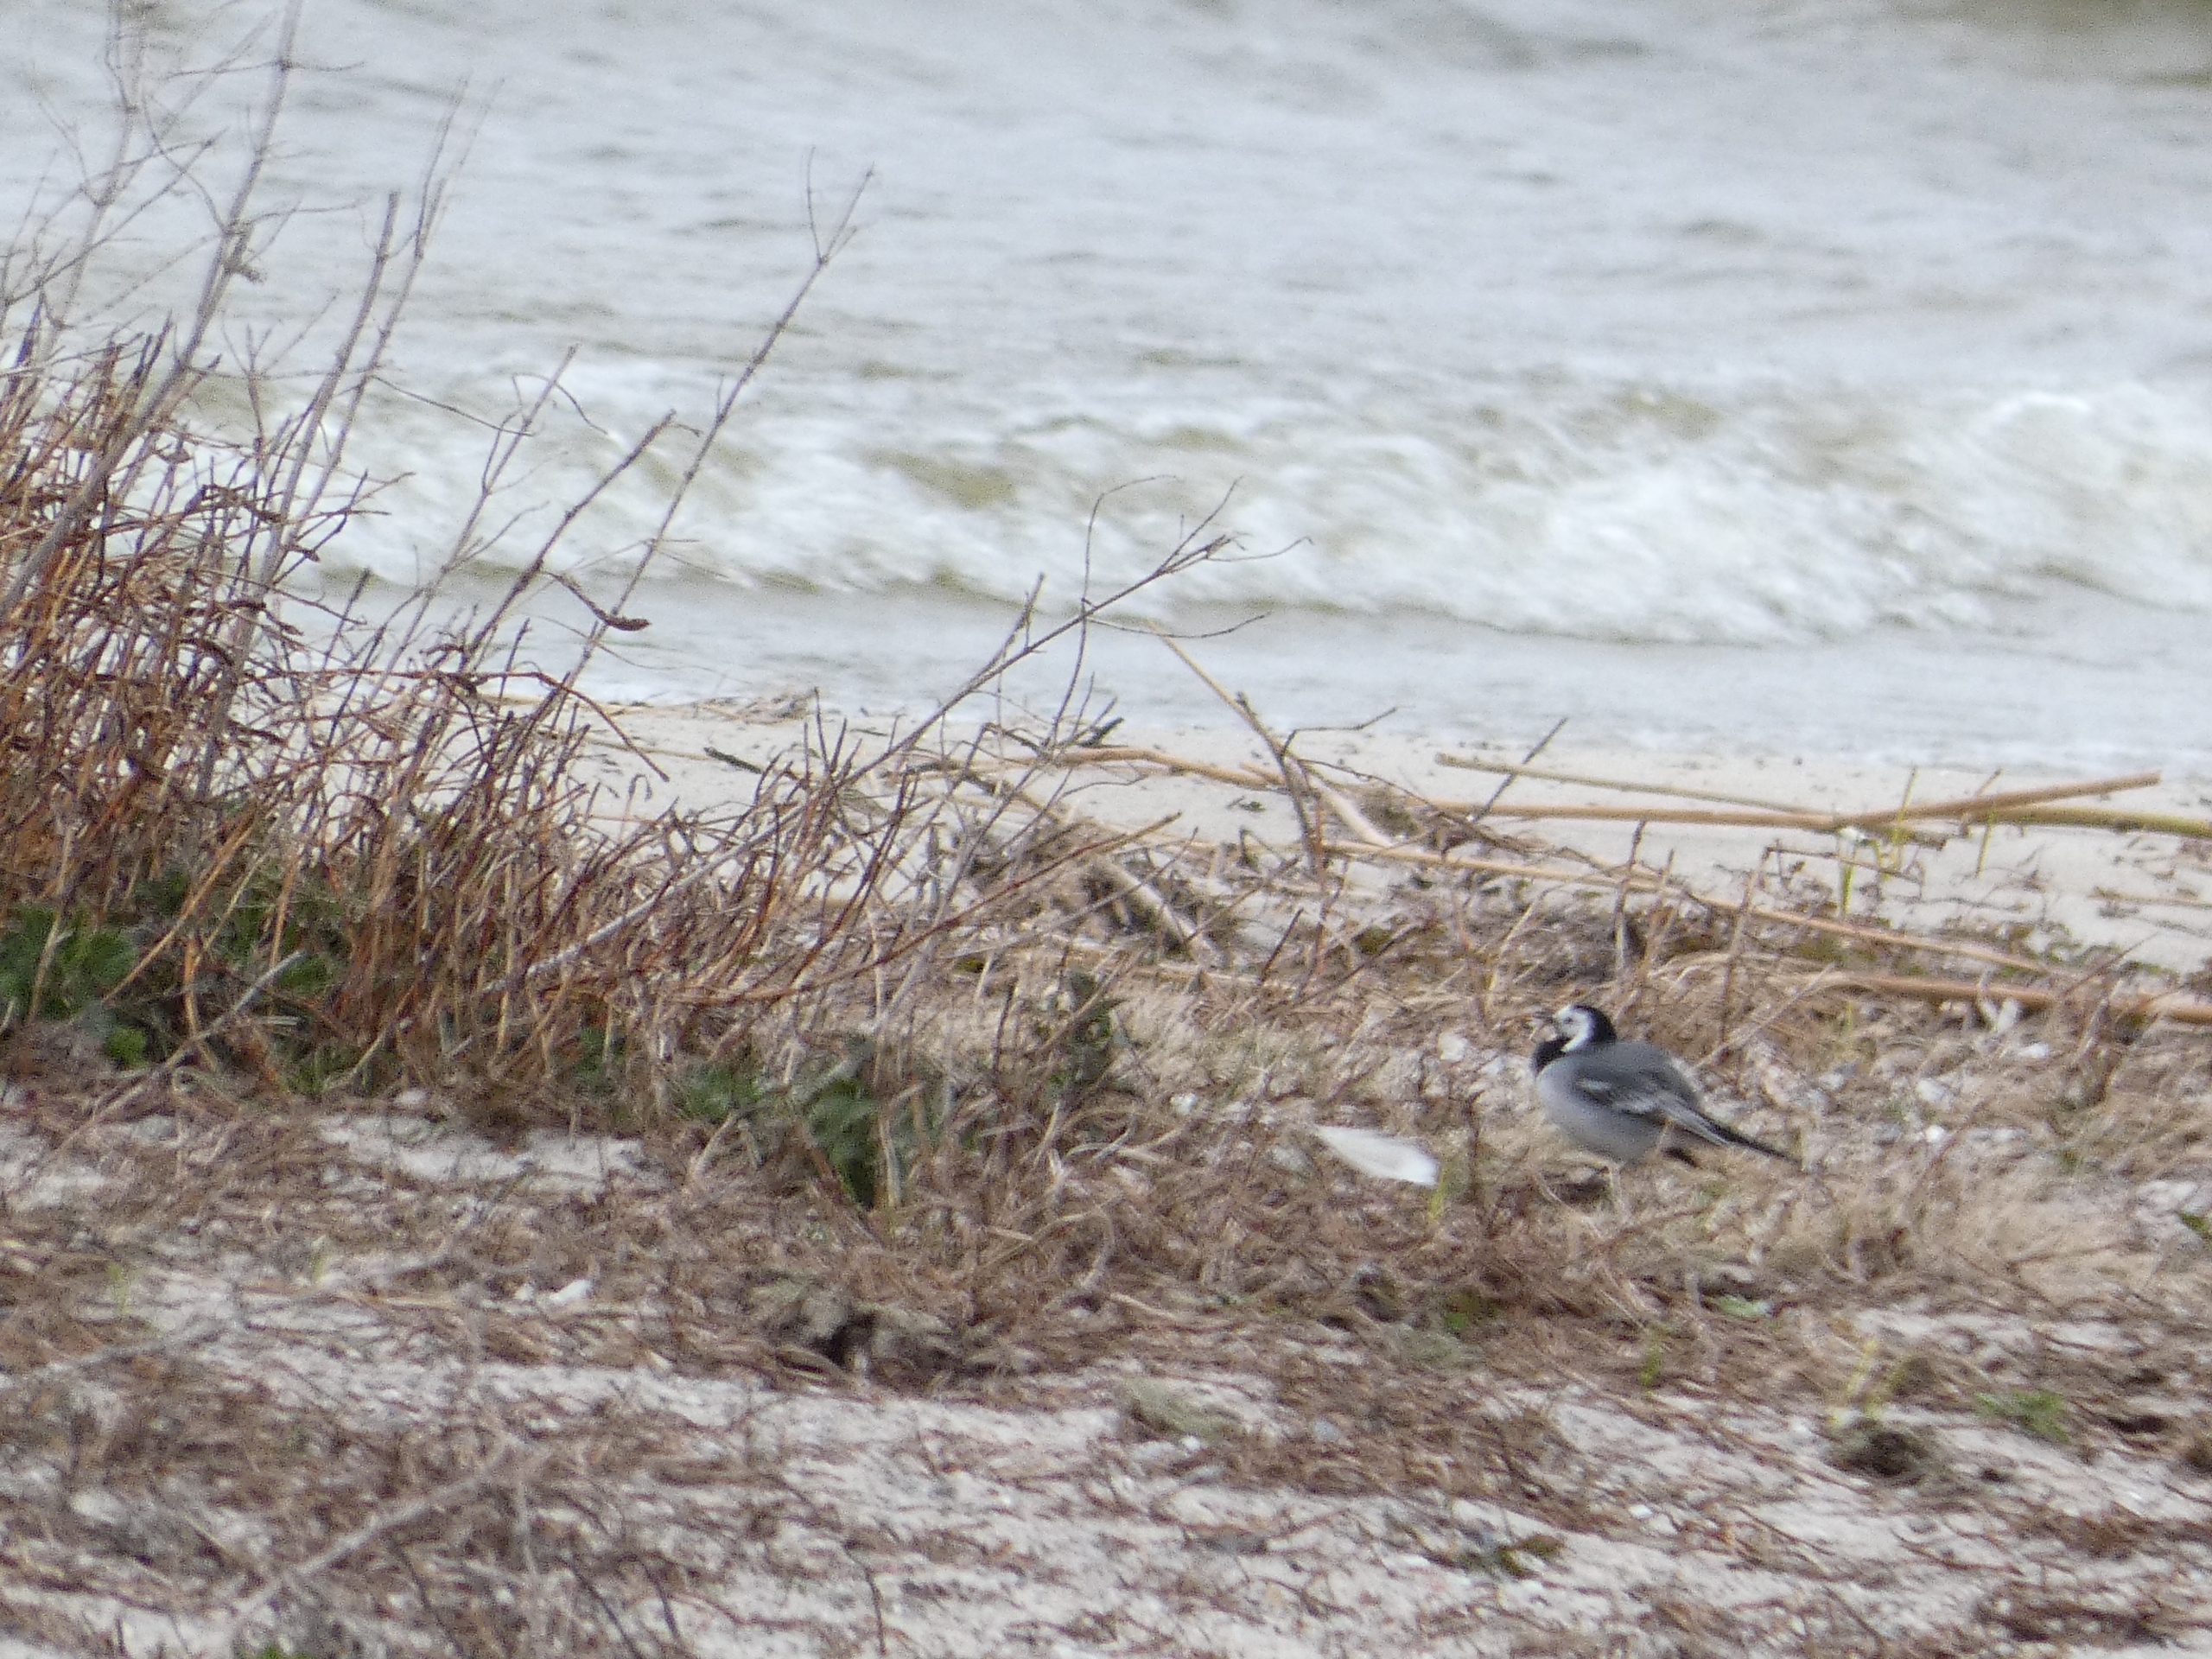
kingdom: Animalia
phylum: Chordata
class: Aves
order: Passeriformes
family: Motacillidae
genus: Motacilla
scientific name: Motacilla alba
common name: Hvid vipstjert
